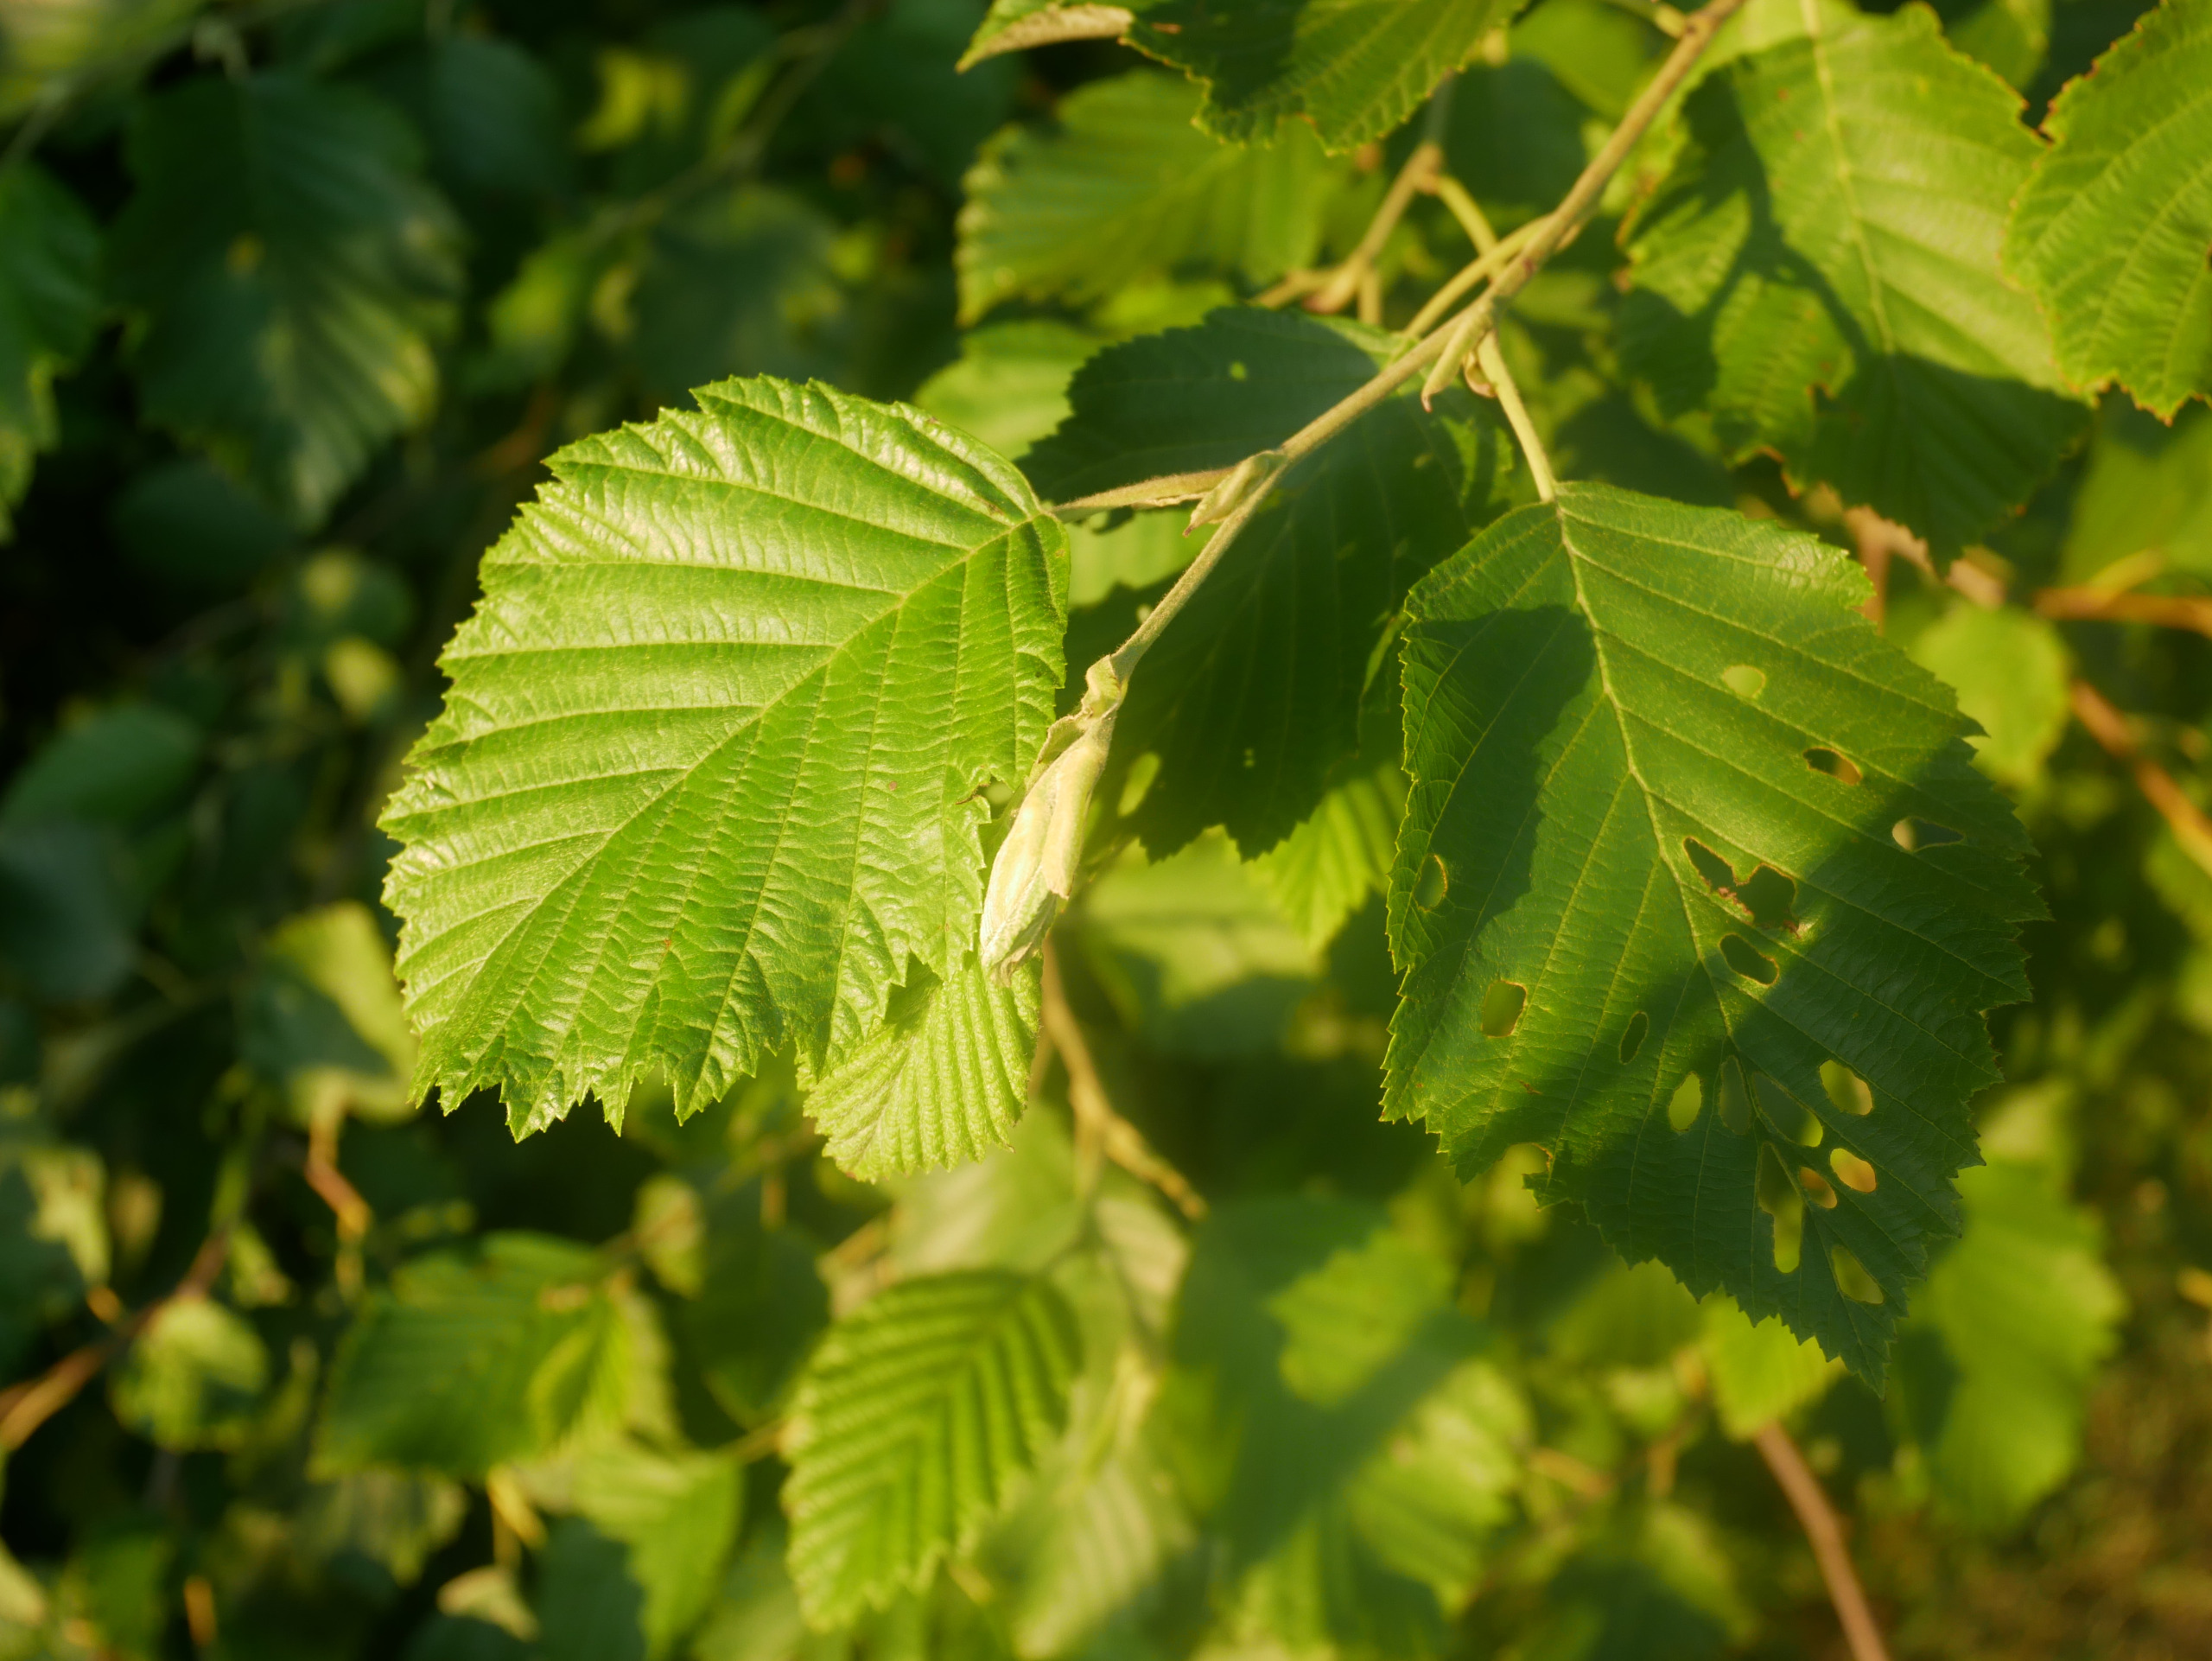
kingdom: Plantae
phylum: Tracheophyta
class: Magnoliopsida
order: Fagales
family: Betulaceae
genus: Alnus
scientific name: Alnus incana
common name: Grå-el/hvid-el
